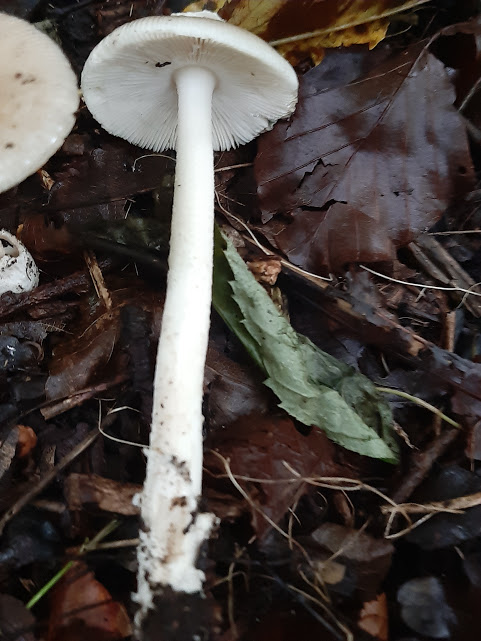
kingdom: Fungi
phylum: Basidiomycota
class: Agaricomycetes
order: Agaricales
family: Amanitaceae
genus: Amanita
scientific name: Amanita
